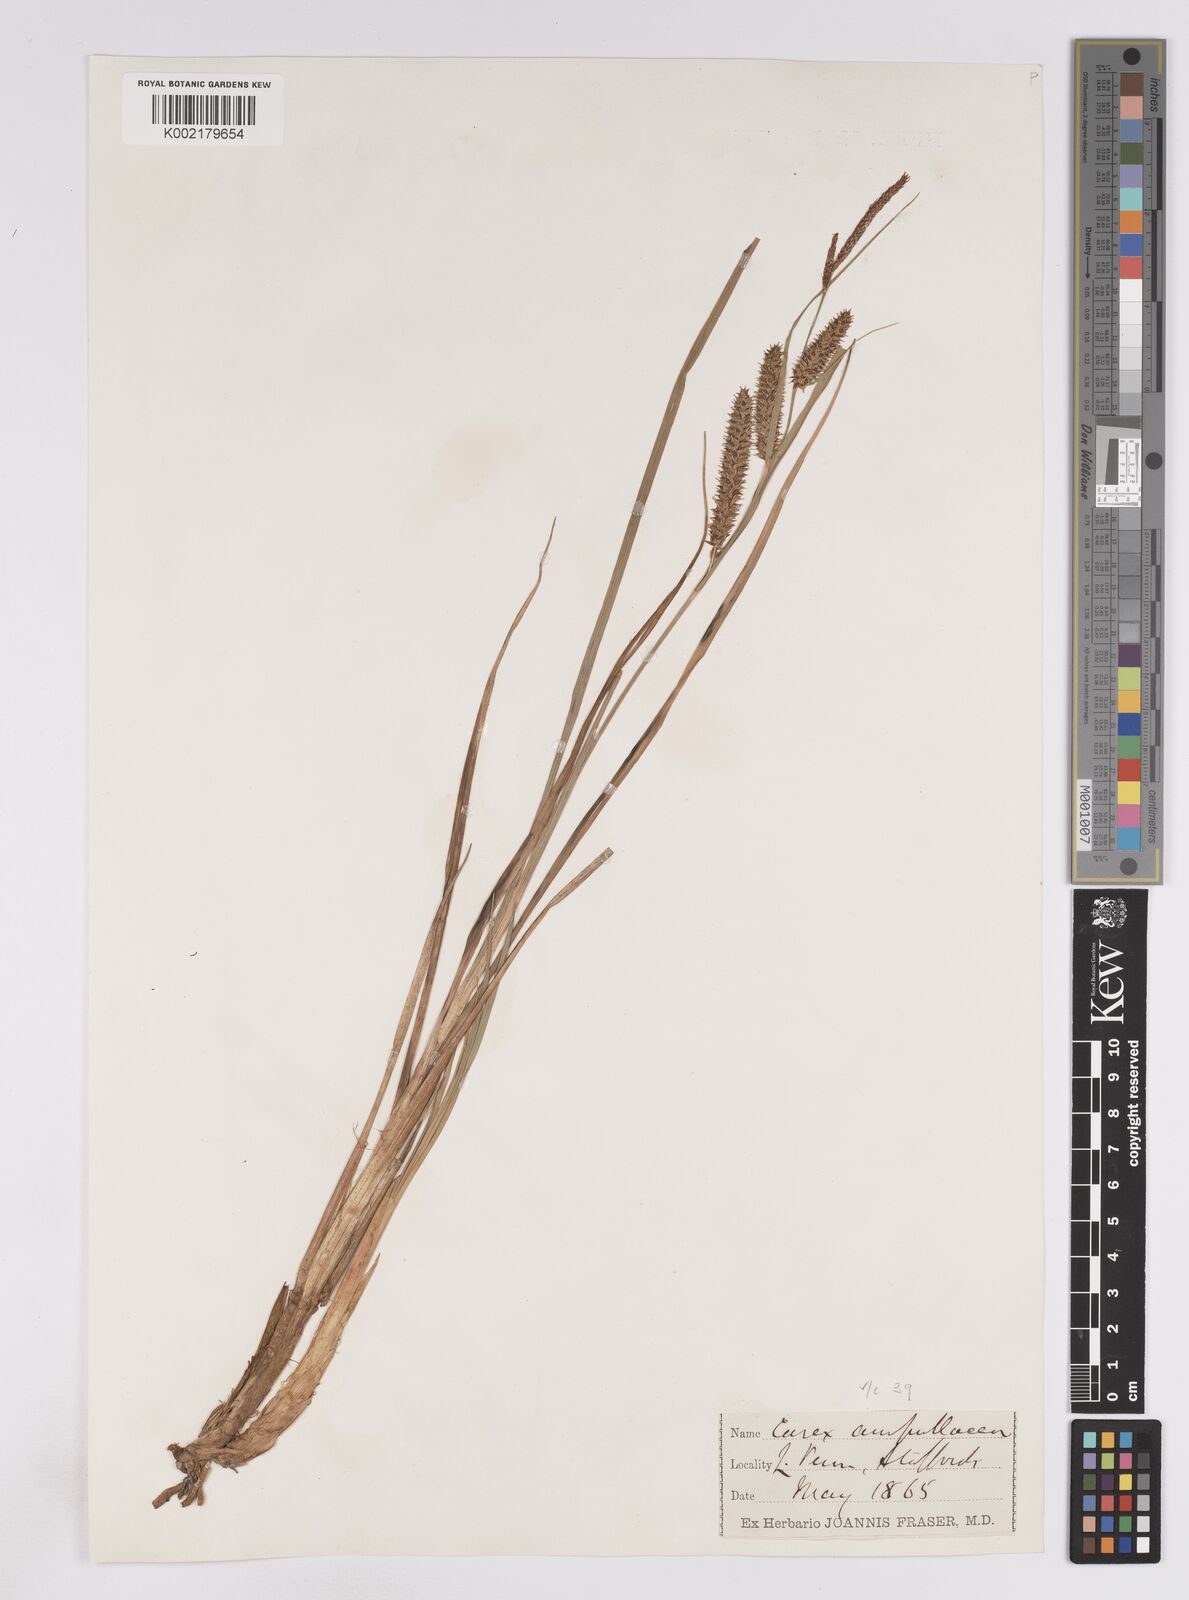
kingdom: Plantae
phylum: Tracheophyta
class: Liliopsida
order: Poales
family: Cyperaceae
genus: Carex
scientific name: Carex rostrata
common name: Bottle sedge
